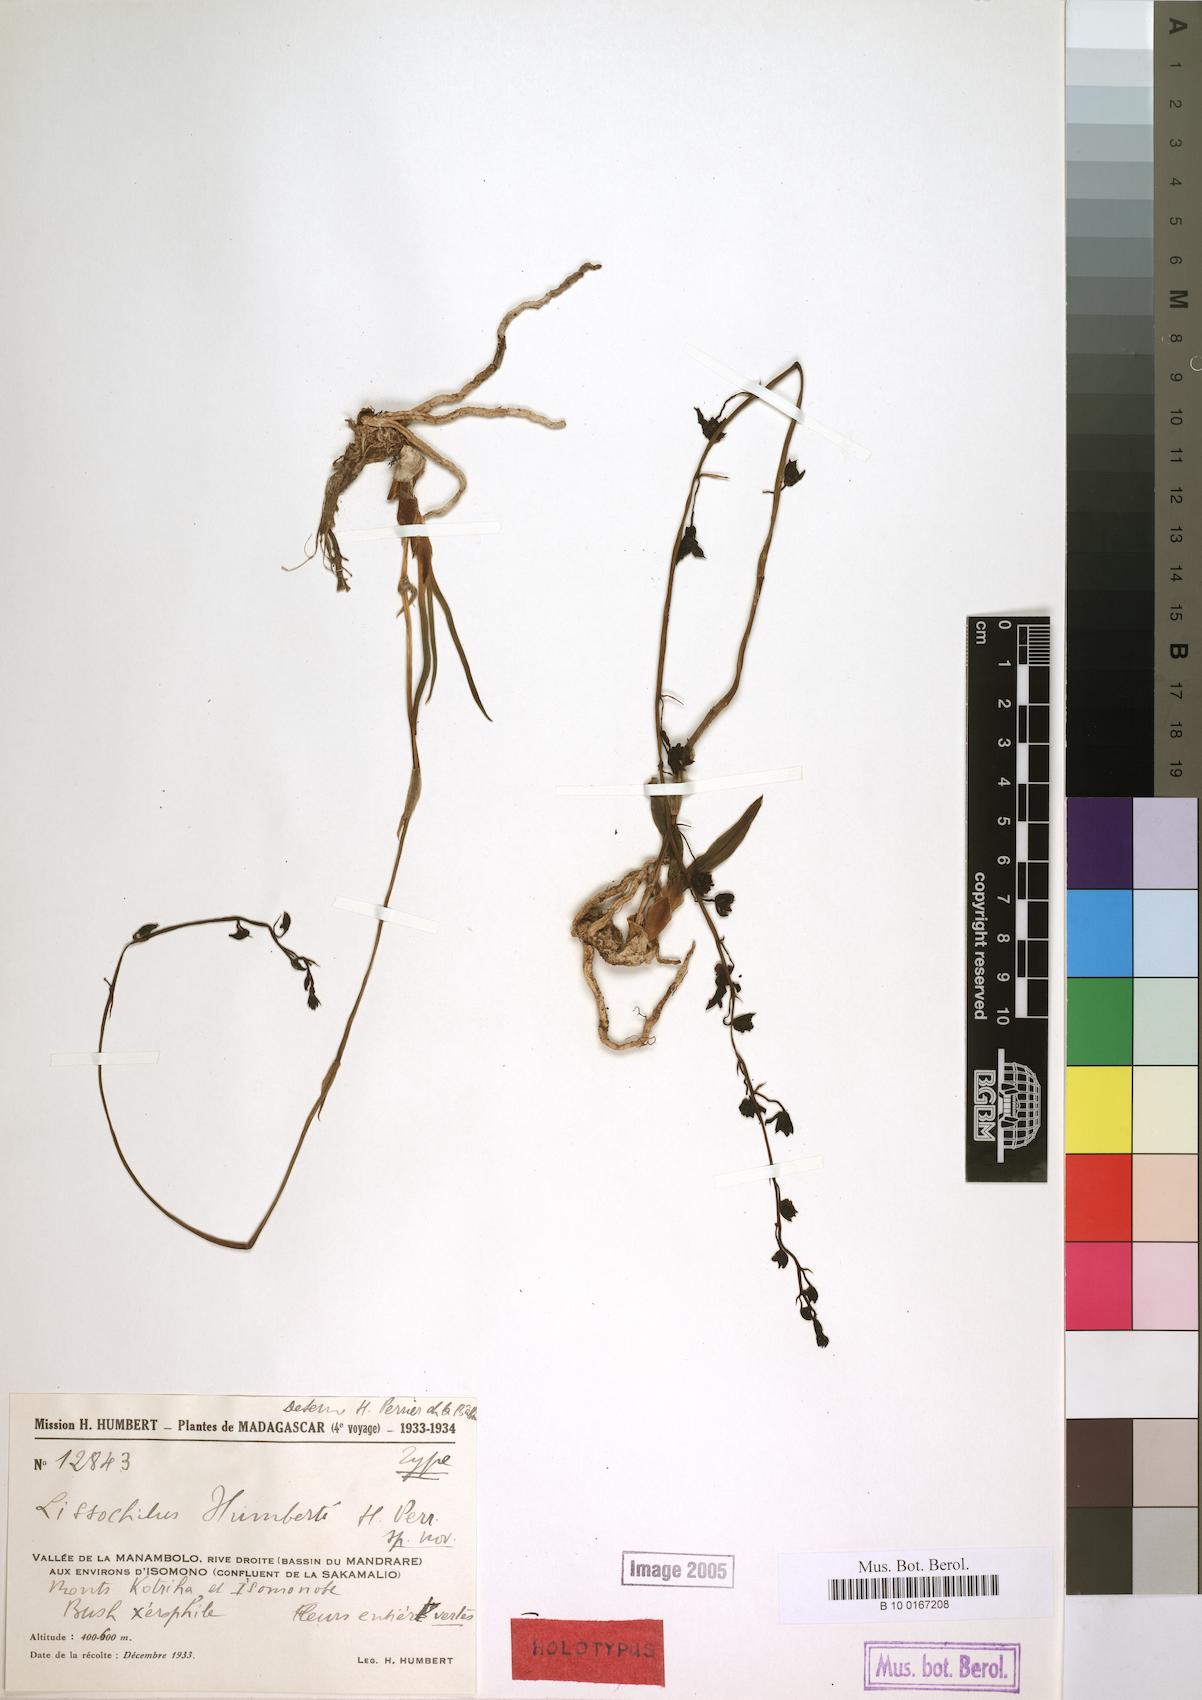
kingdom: Plantae
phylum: Tracheophyta
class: Liliopsida
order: Asparagales
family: Orchidaceae
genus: Eulophia
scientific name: Eulophia humbertii
